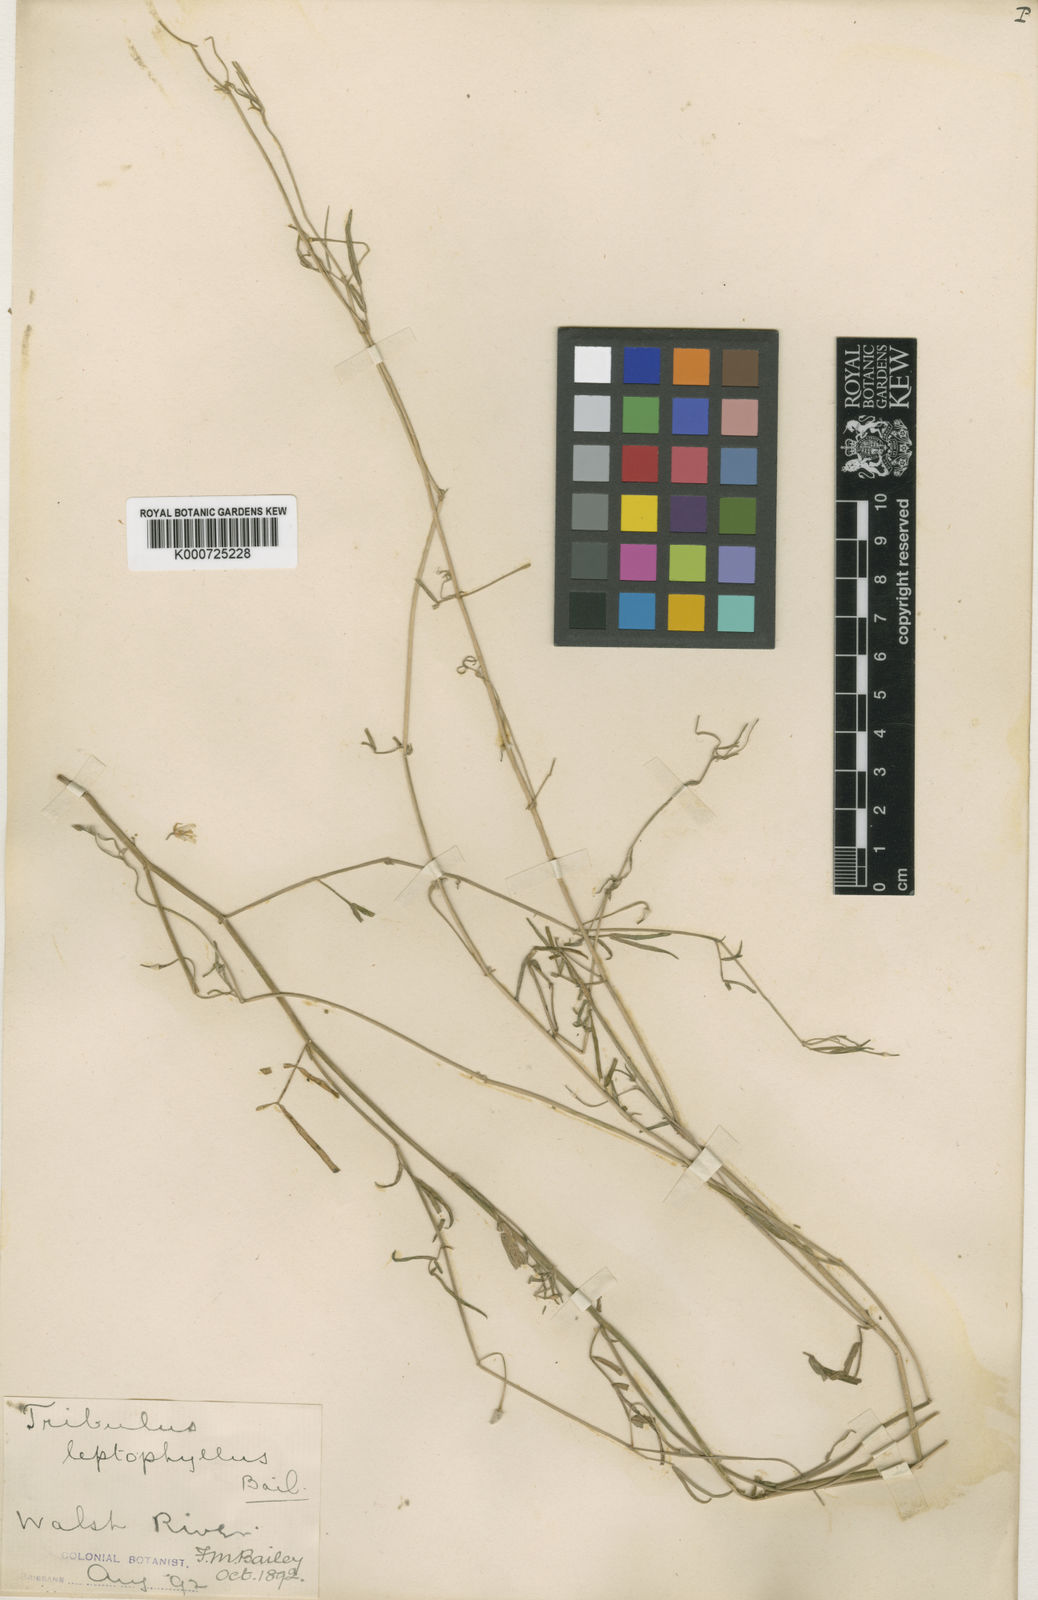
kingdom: Plantae
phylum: Tracheophyta
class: Magnoliopsida
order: Zygophyllales
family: Zygophyllaceae
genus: Tribulopis
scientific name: Tribulopis angustifolia
